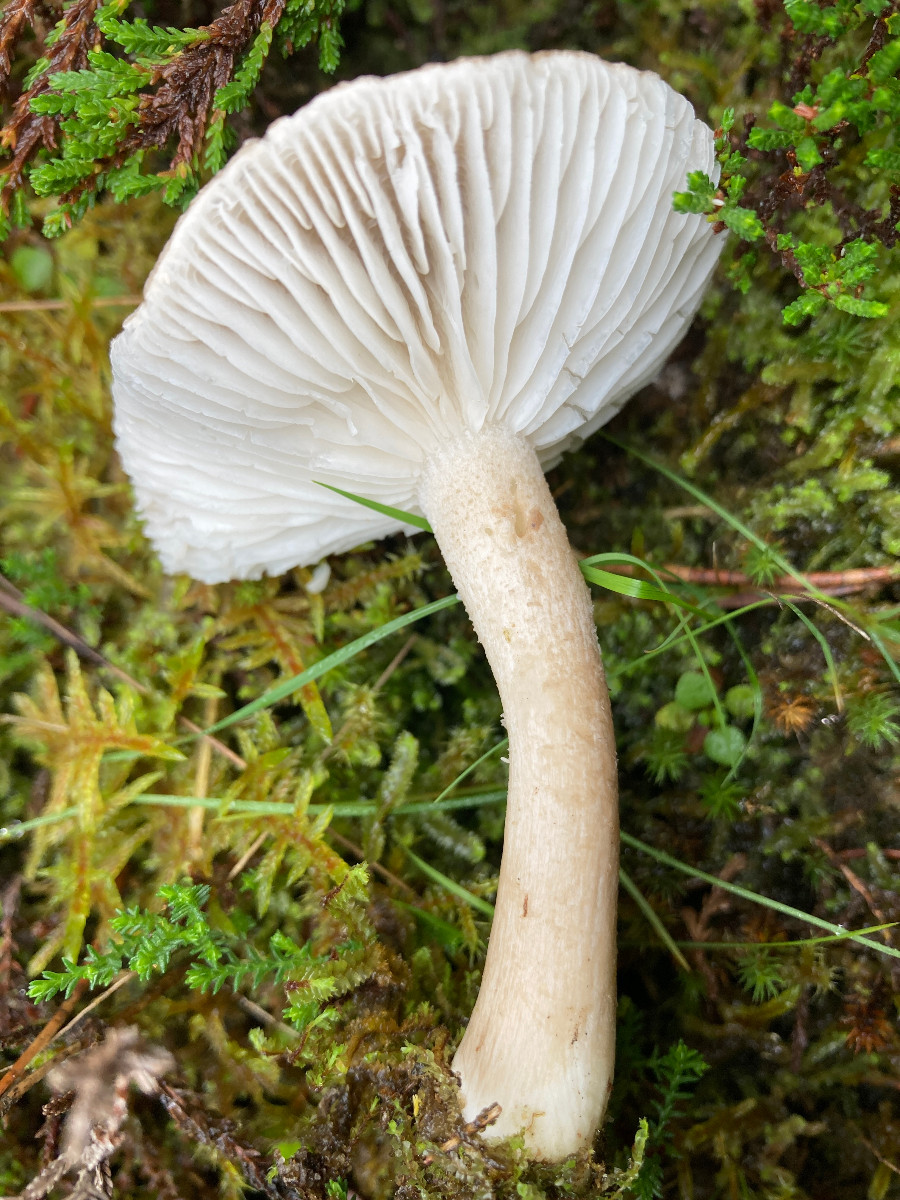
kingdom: Fungi
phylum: Basidiomycota
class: Agaricomycetes
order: Agaricales
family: Hygrophoraceae
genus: Hygrophorus
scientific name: Hygrophorus agathosmus
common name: vellugtende sneglehat
